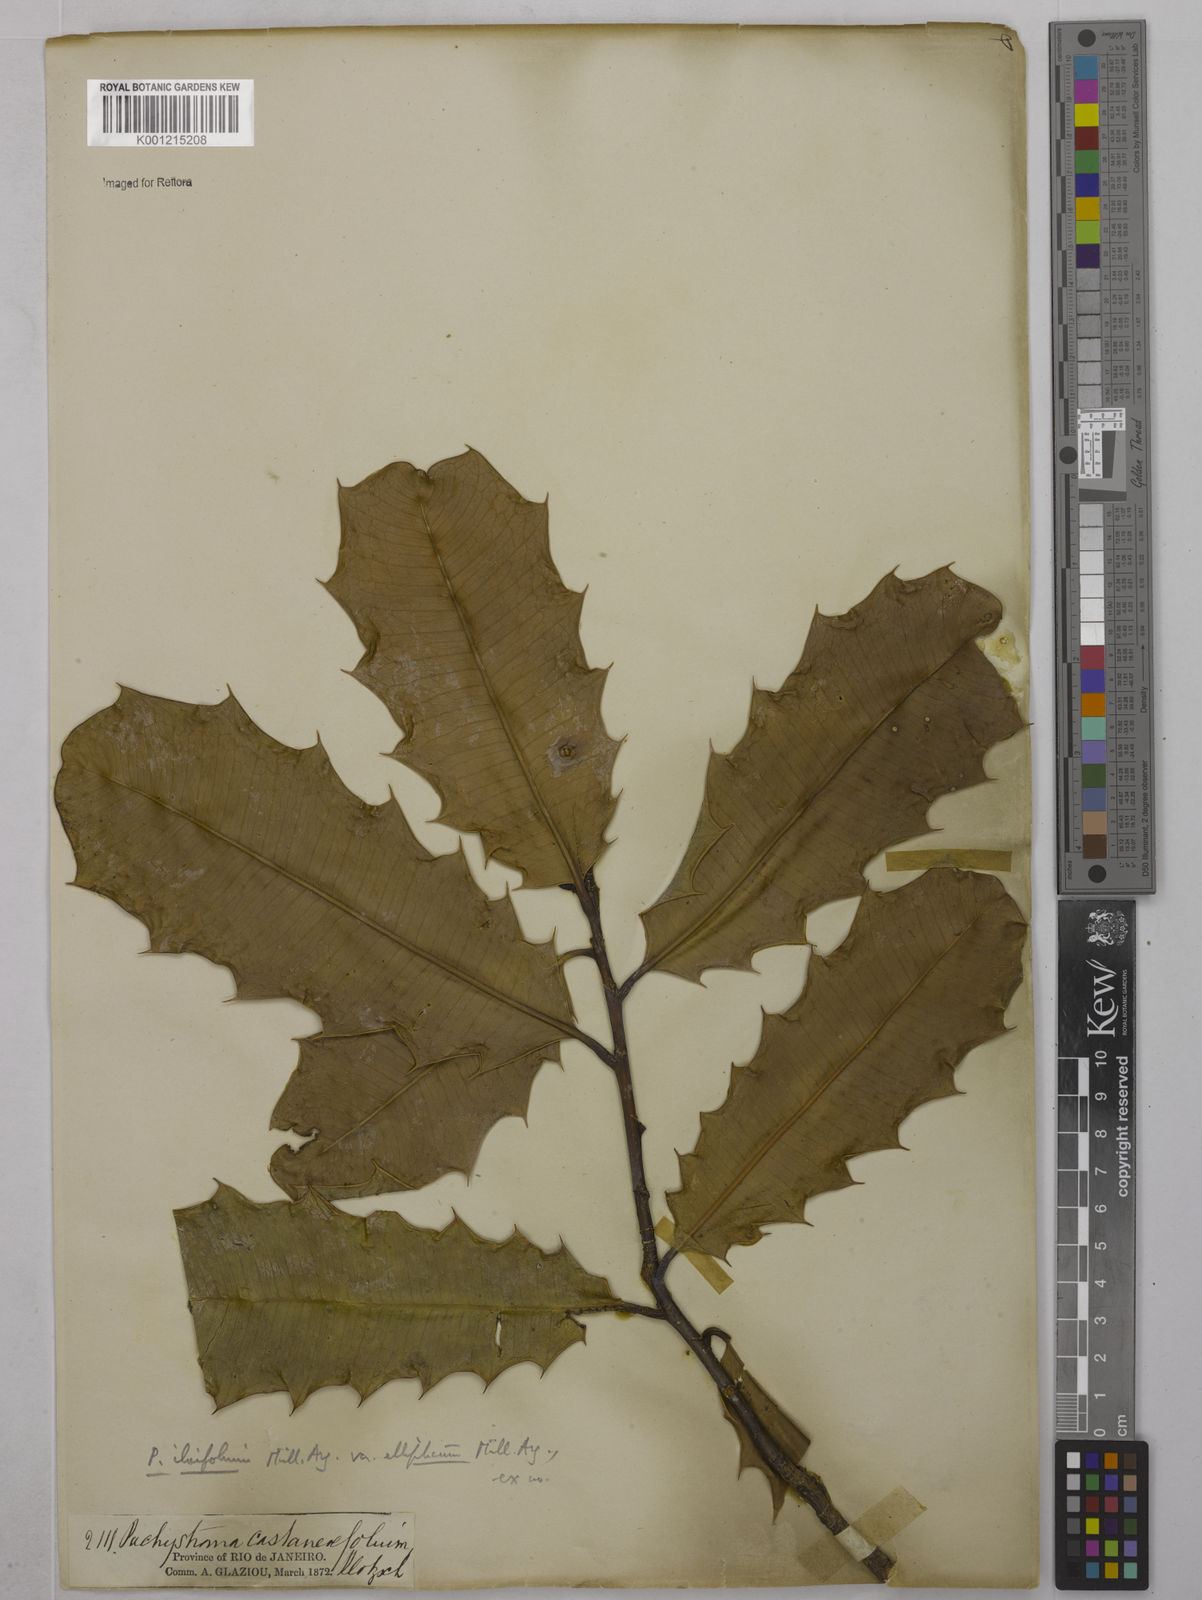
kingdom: Plantae
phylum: Tracheophyta
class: Magnoliopsida
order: Malpighiales
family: Euphorbiaceae
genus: Pachystroma
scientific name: Pachystroma longifolium
